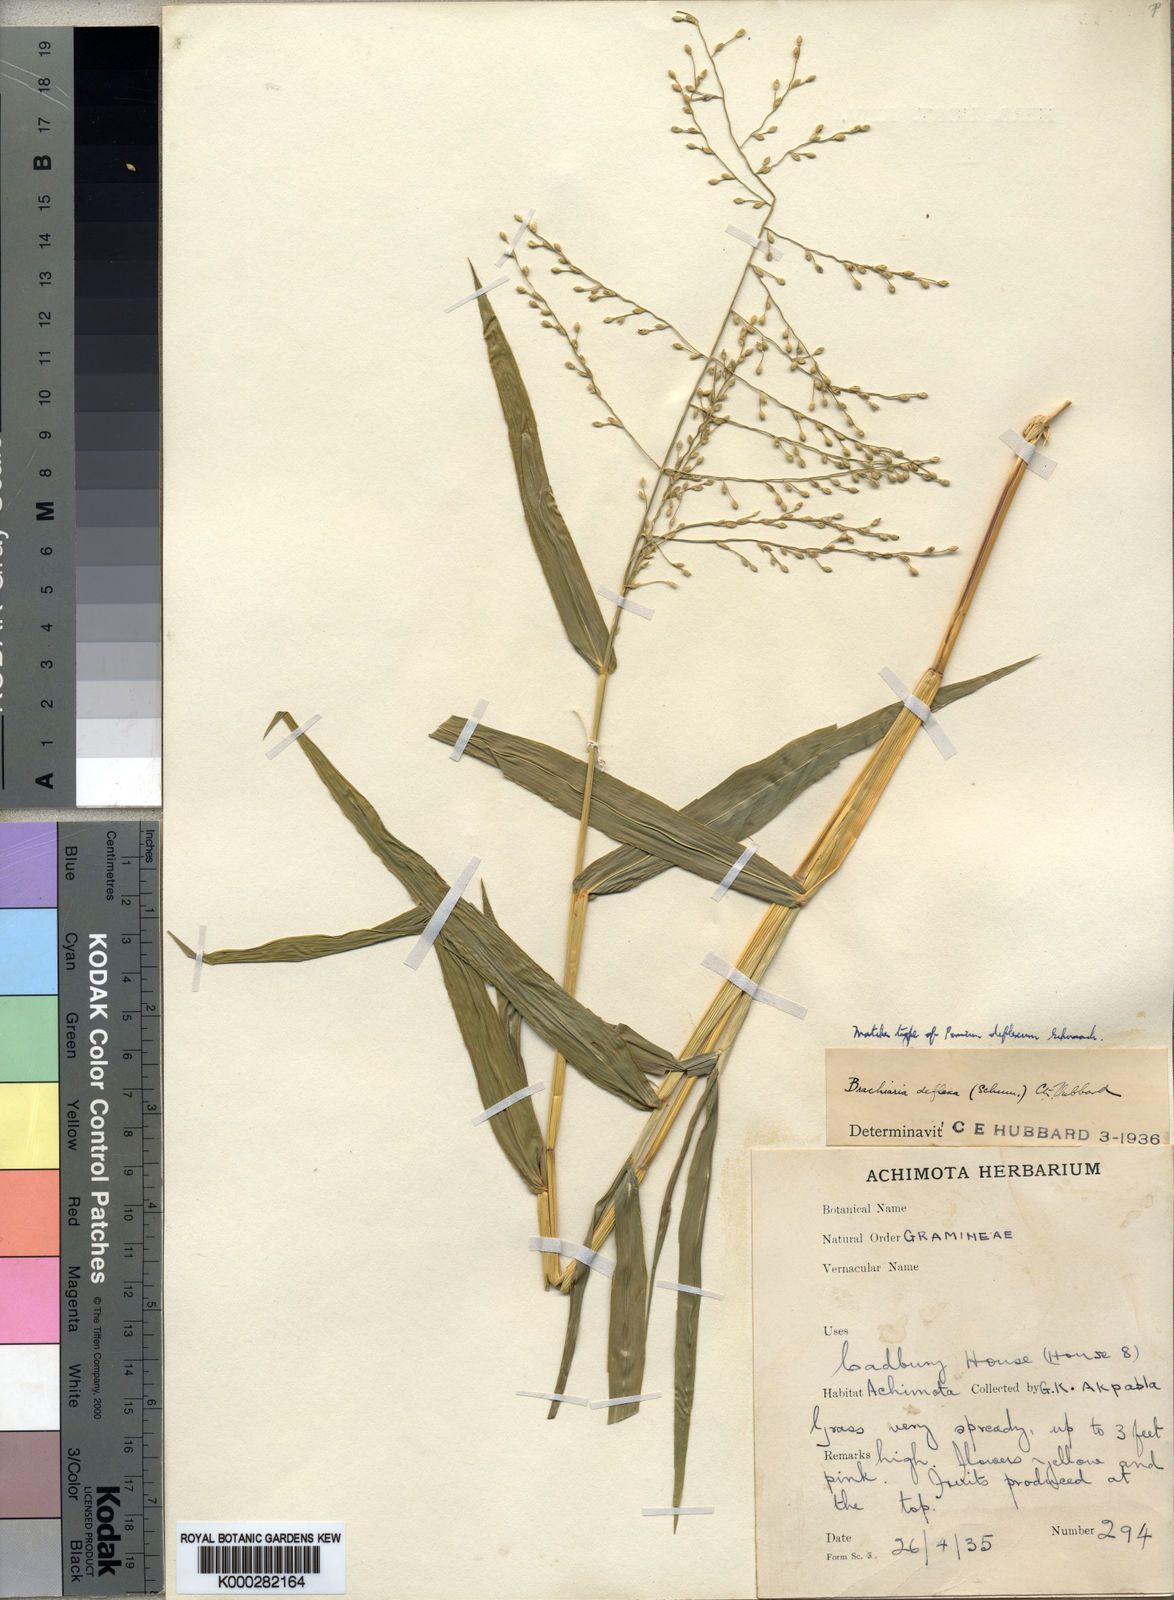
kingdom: Plantae
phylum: Tracheophyta
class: Liliopsida
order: Poales
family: Poaceae
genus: Urochloa
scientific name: Urochloa deflexa
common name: Guinea millet
